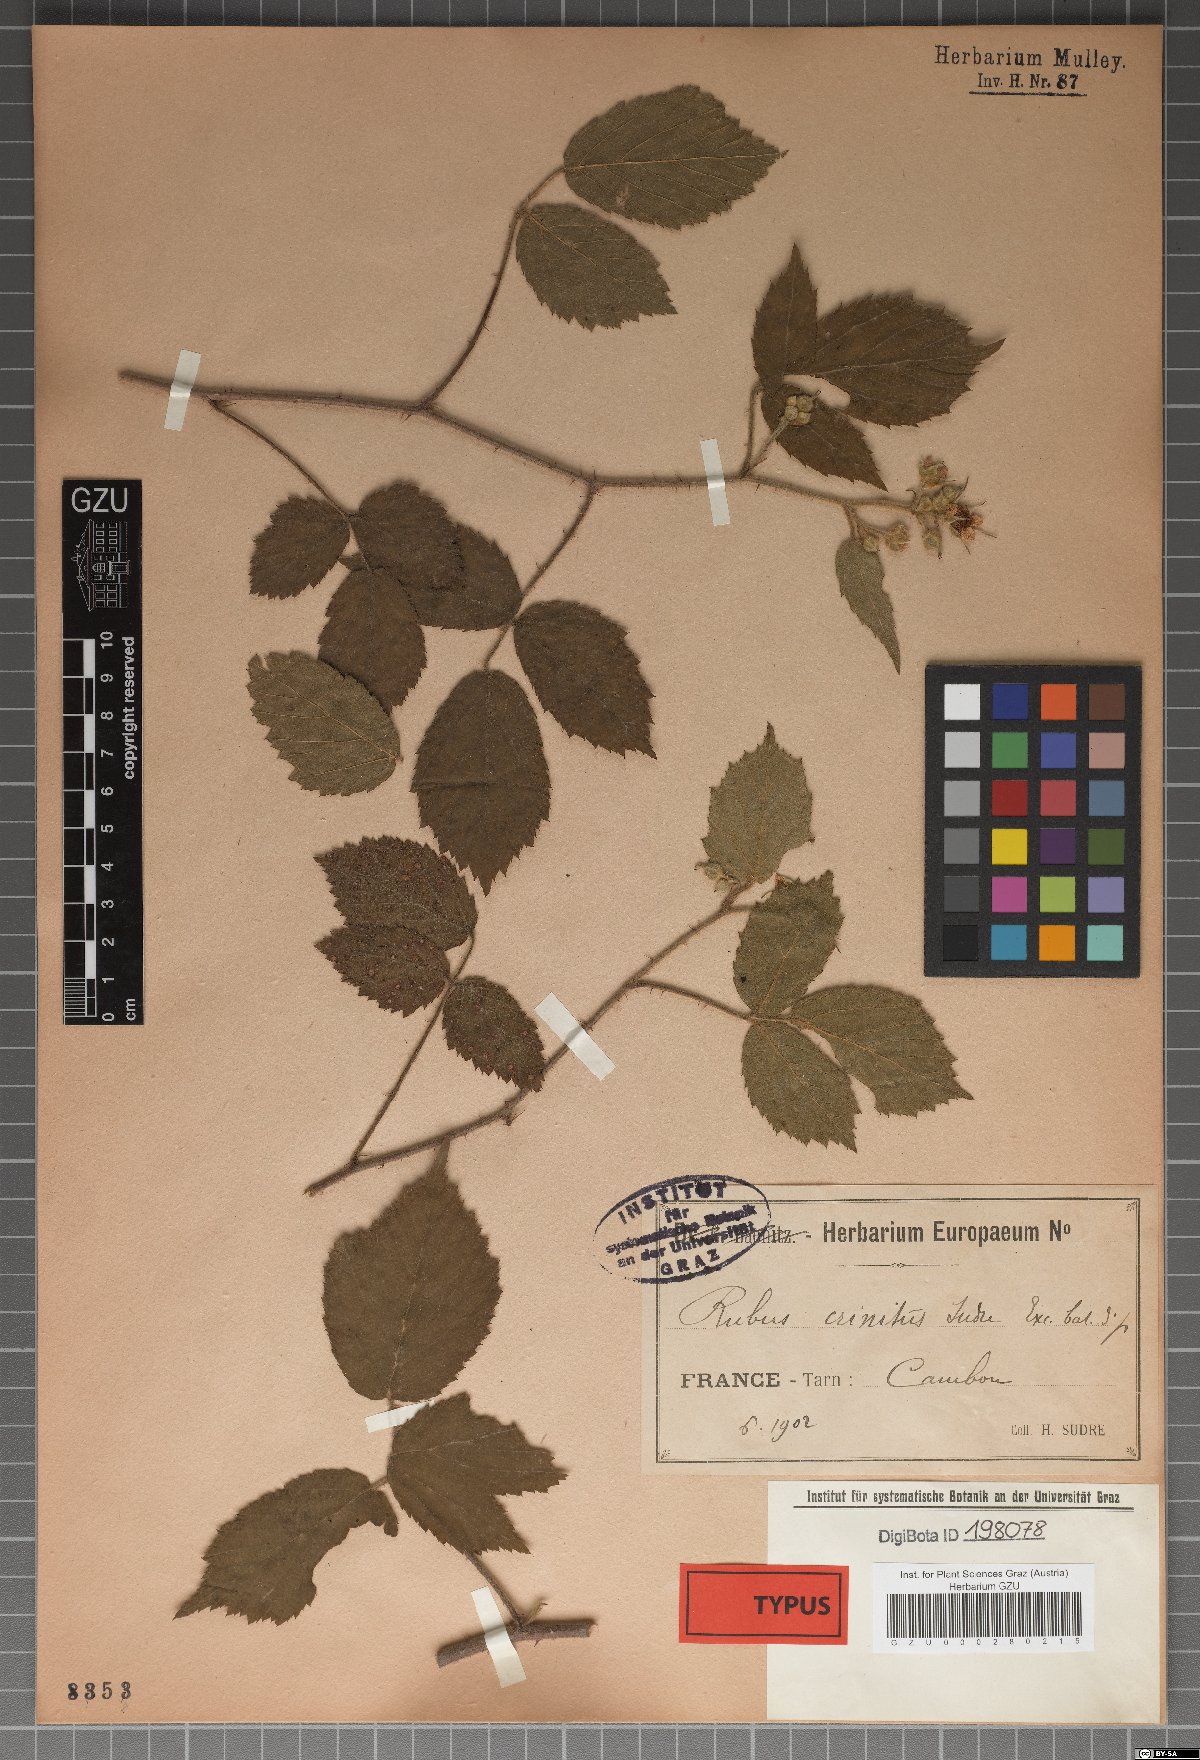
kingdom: Plantae
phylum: Tracheophyta
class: Magnoliopsida
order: Rosales
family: Rosaceae
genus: Rubus
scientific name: Rubus perplexus
